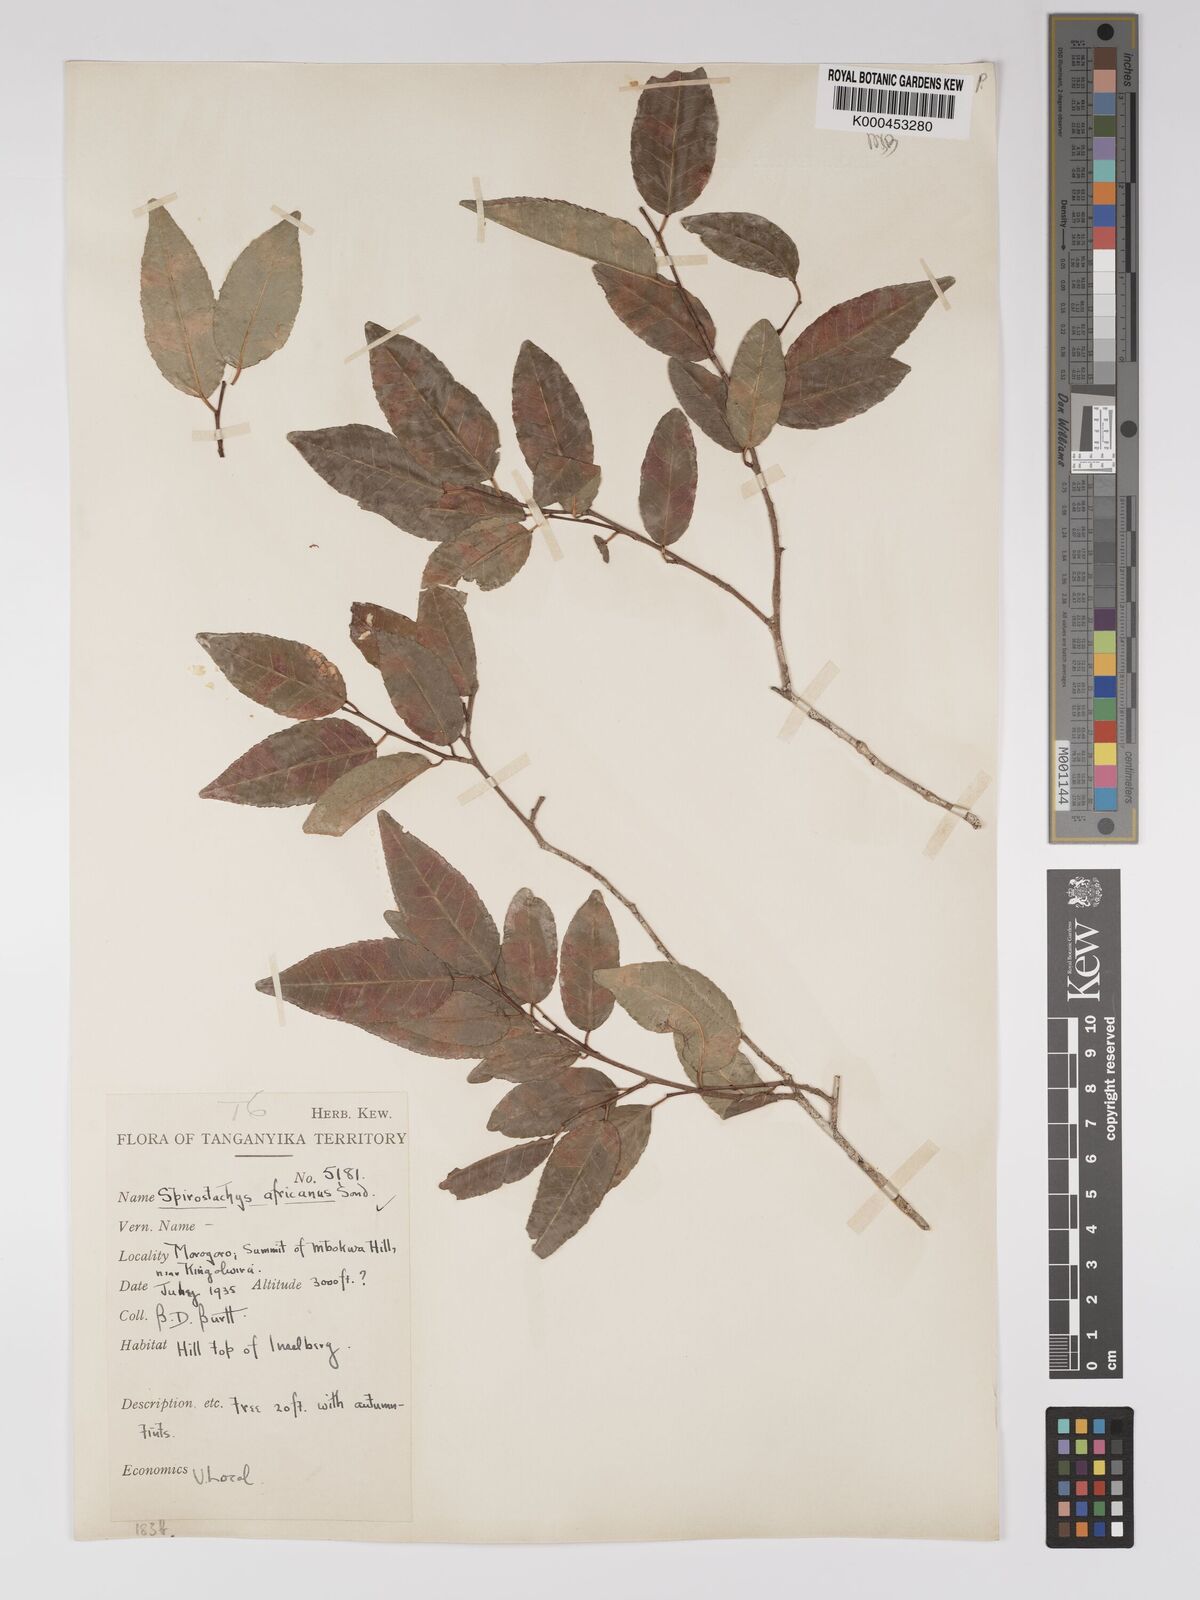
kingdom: Plantae
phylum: Tracheophyta
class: Magnoliopsida
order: Malpighiales
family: Euphorbiaceae
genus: Spirostachys
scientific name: Spirostachys africana
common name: Tamboti
